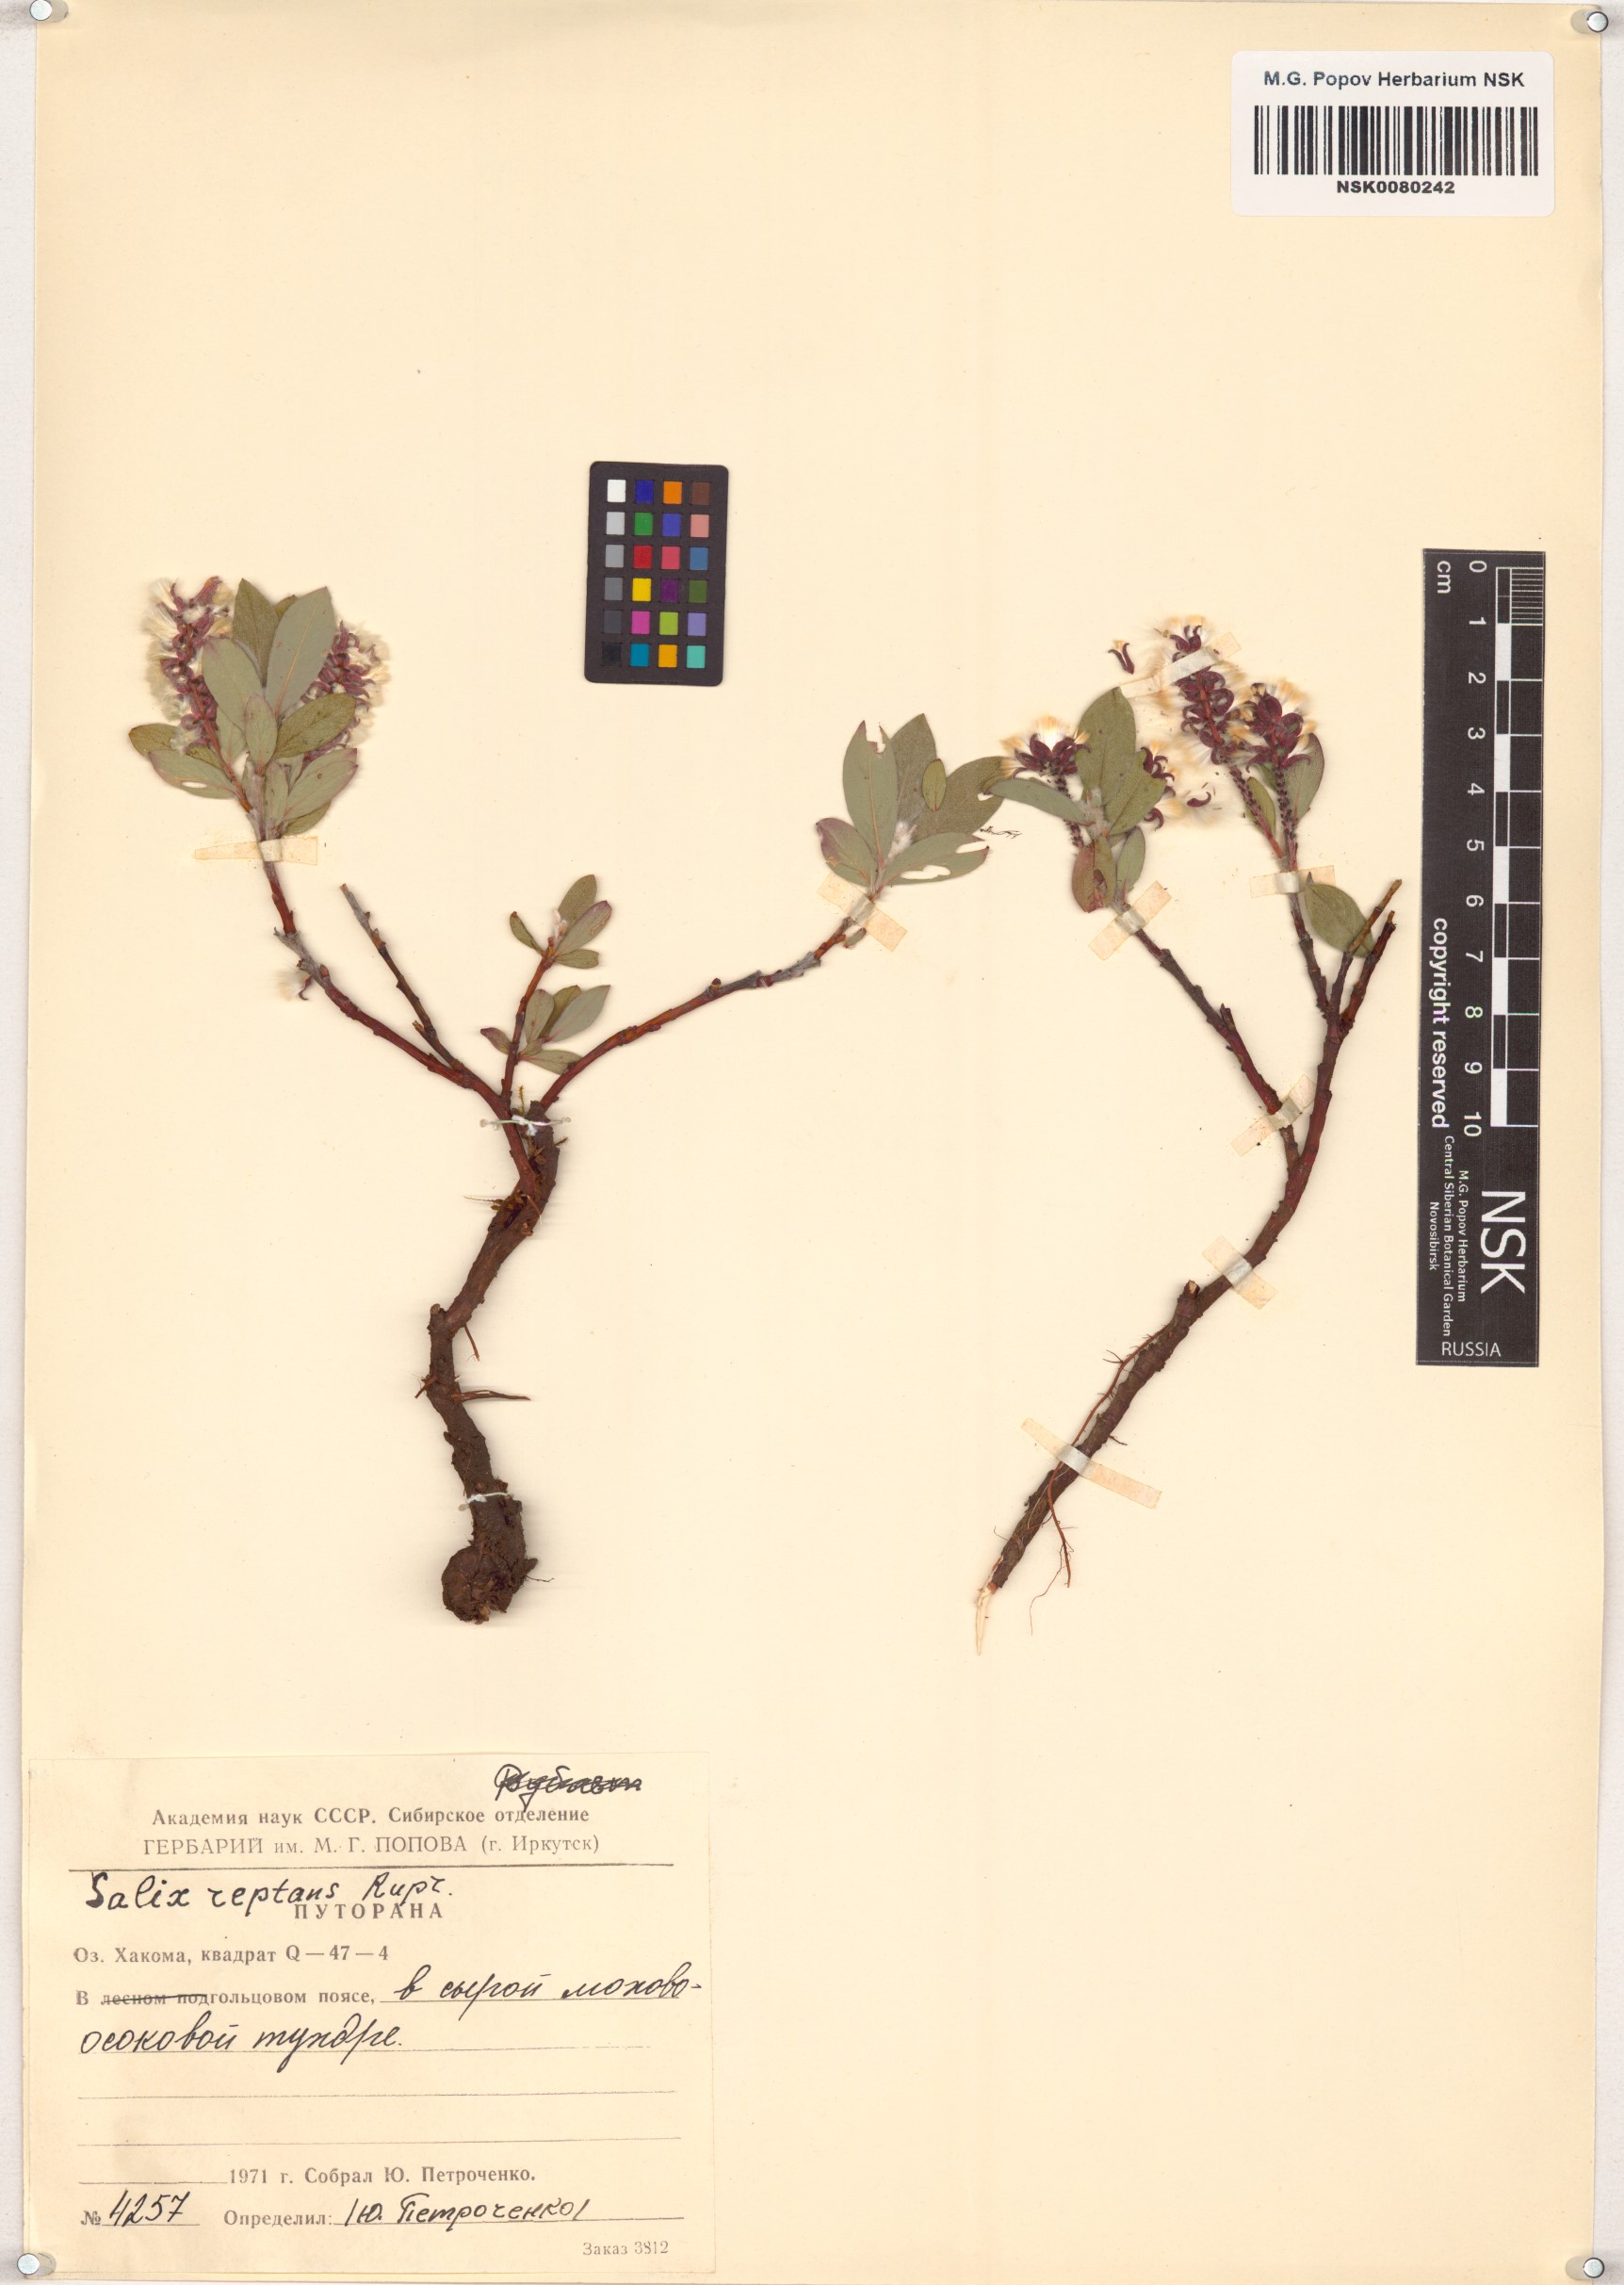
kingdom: Plantae
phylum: Tracheophyta
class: Magnoliopsida
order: Malpighiales
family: Salicaceae
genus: Salix
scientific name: Salix reptans
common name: Arctic creeping willow
